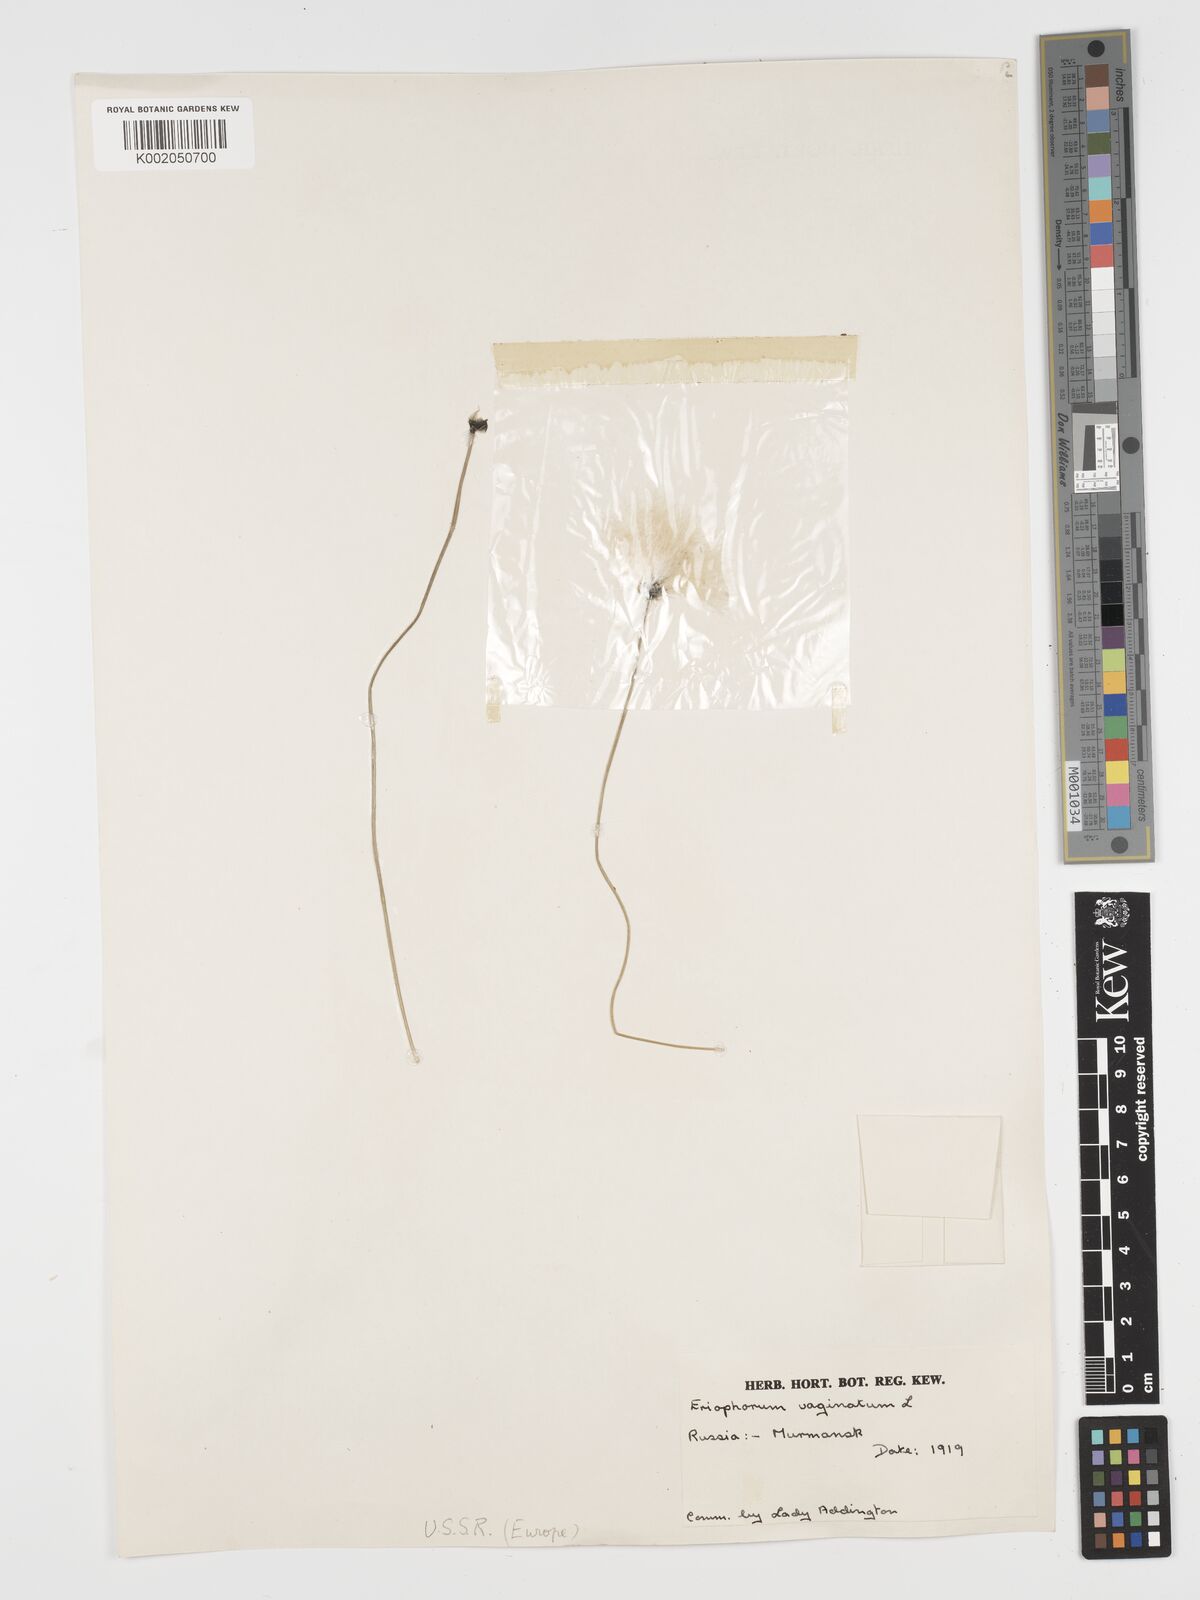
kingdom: Plantae
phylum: Tracheophyta
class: Liliopsida
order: Poales
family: Cyperaceae
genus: Eriophorum
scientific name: Eriophorum vaginatum
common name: Hare's-tail cottongrass
